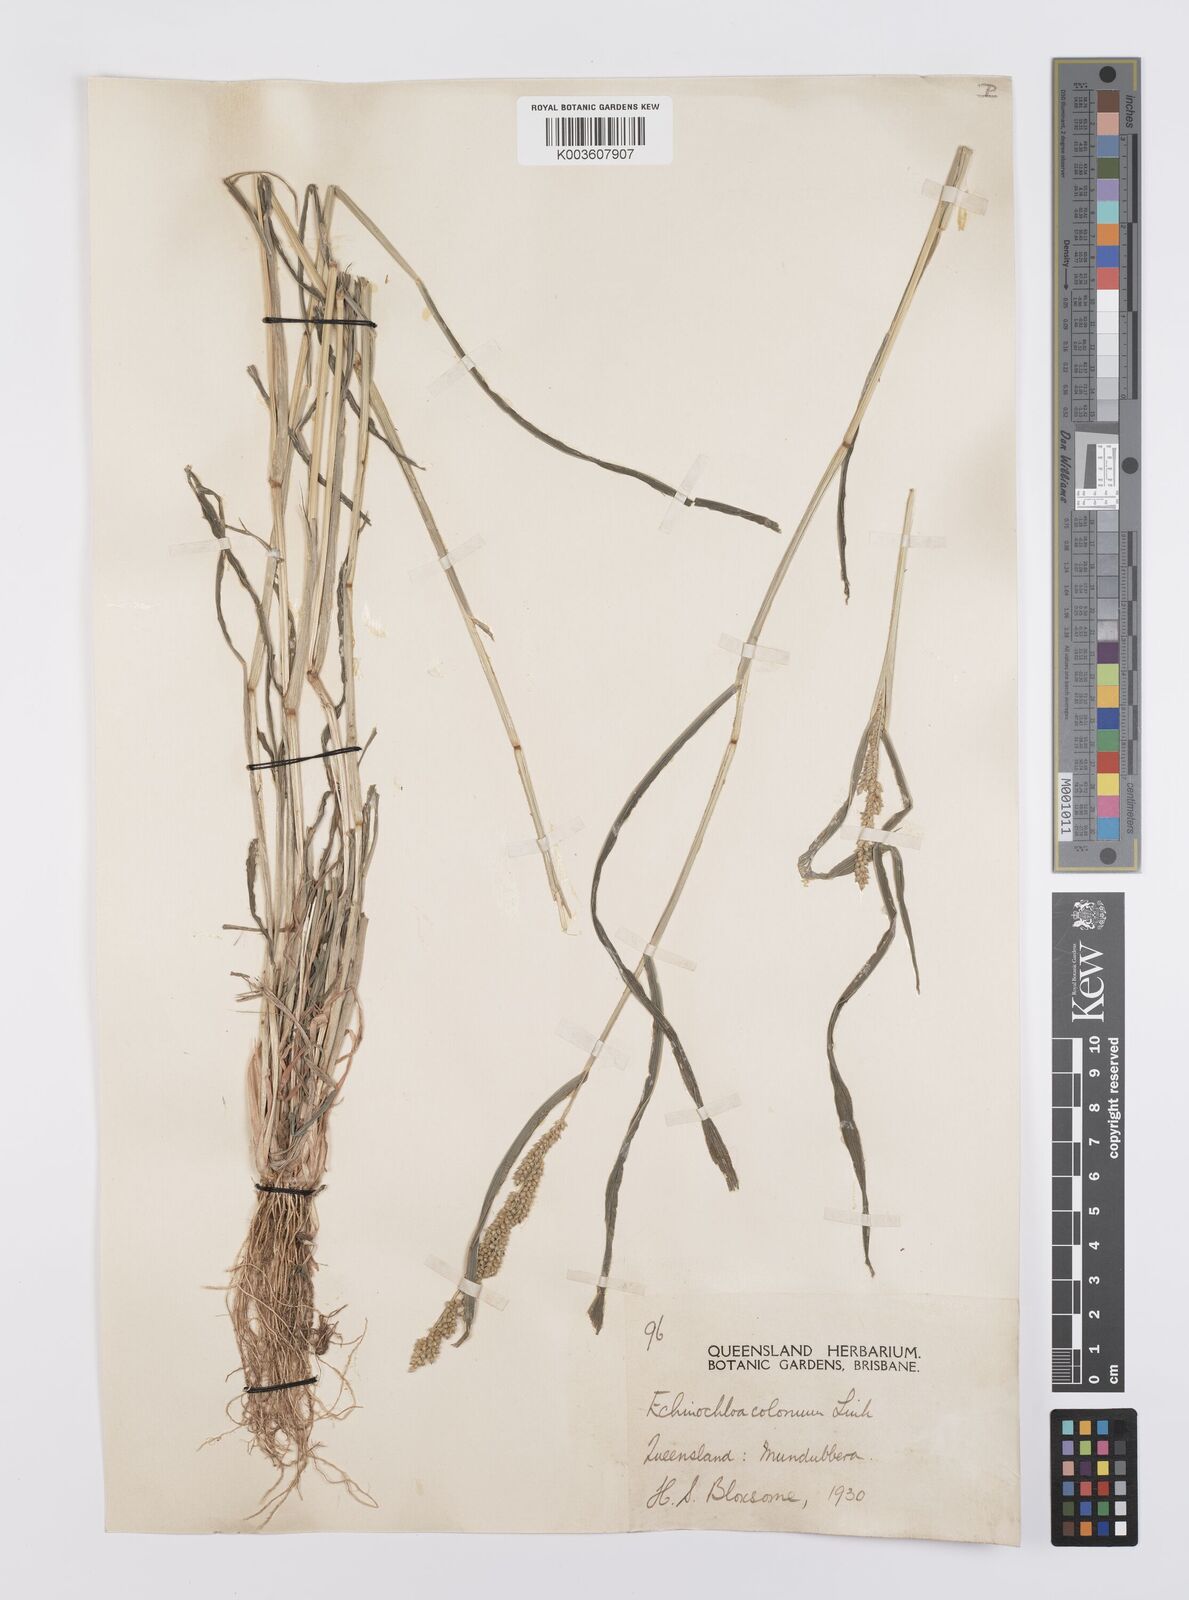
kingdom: Plantae
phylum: Tracheophyta
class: Liliopsida
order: Poales
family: Poaceae
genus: Echinochloa
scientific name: Echinochloa colonum
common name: Jungle rice
